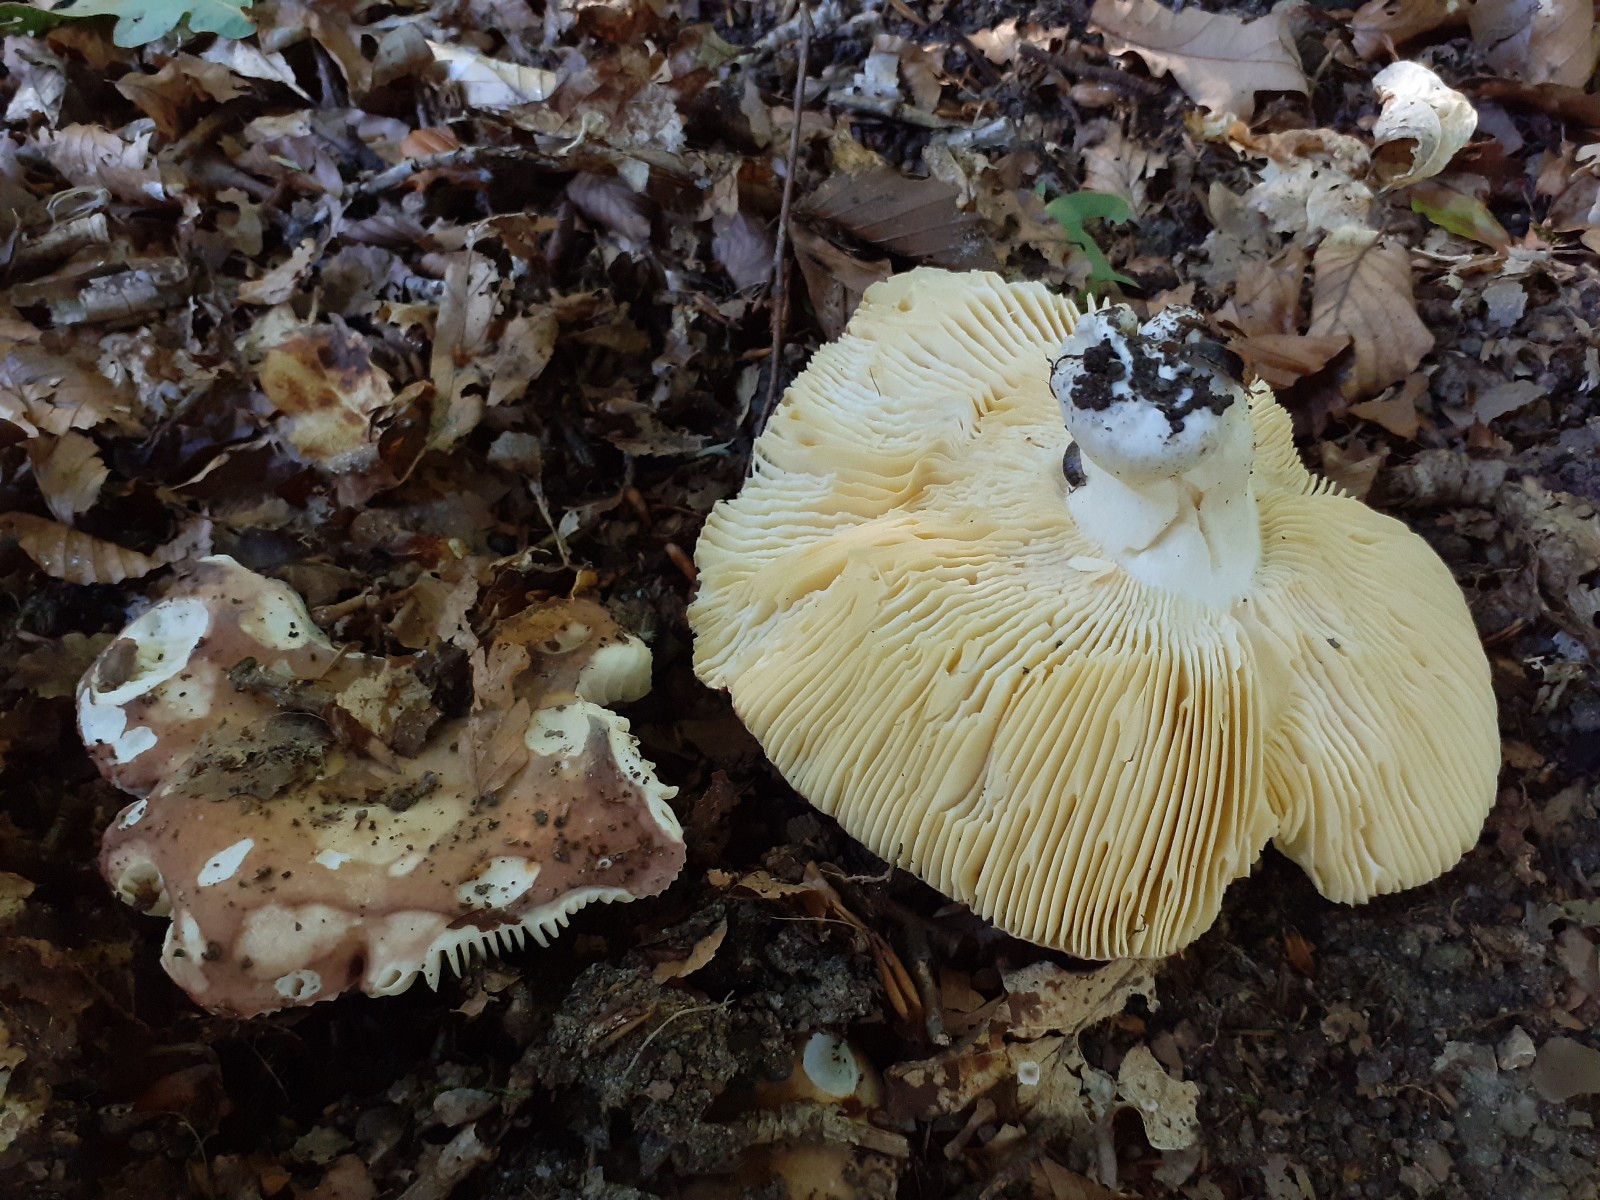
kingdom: Fungi
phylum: Basidiomycota
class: Agaricomycetes
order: Russulales
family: Russulaceae
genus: Russula
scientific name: Russula curtipes
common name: kortstokket skørhat
